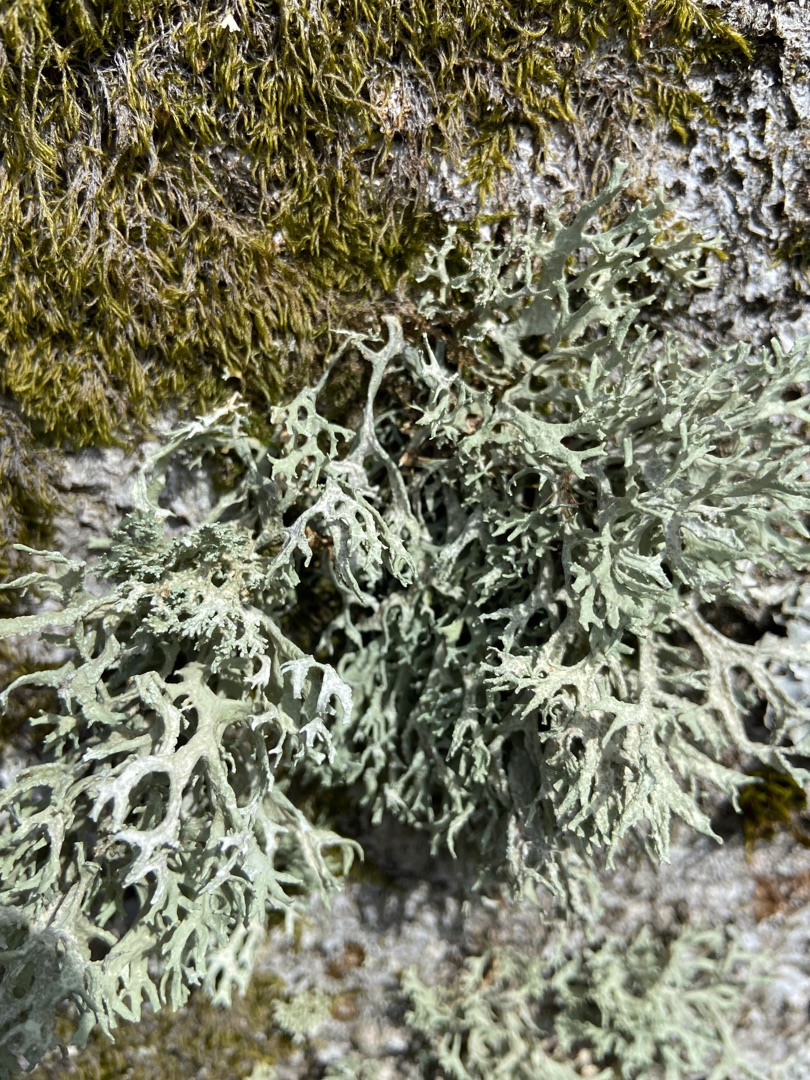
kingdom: Fungi
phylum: Ascomycota
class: Lecanoromycetes
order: Lecanorales
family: Parmeliaceae
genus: Evernia
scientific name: Evernia prunastri
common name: Almindelig slåenlav
